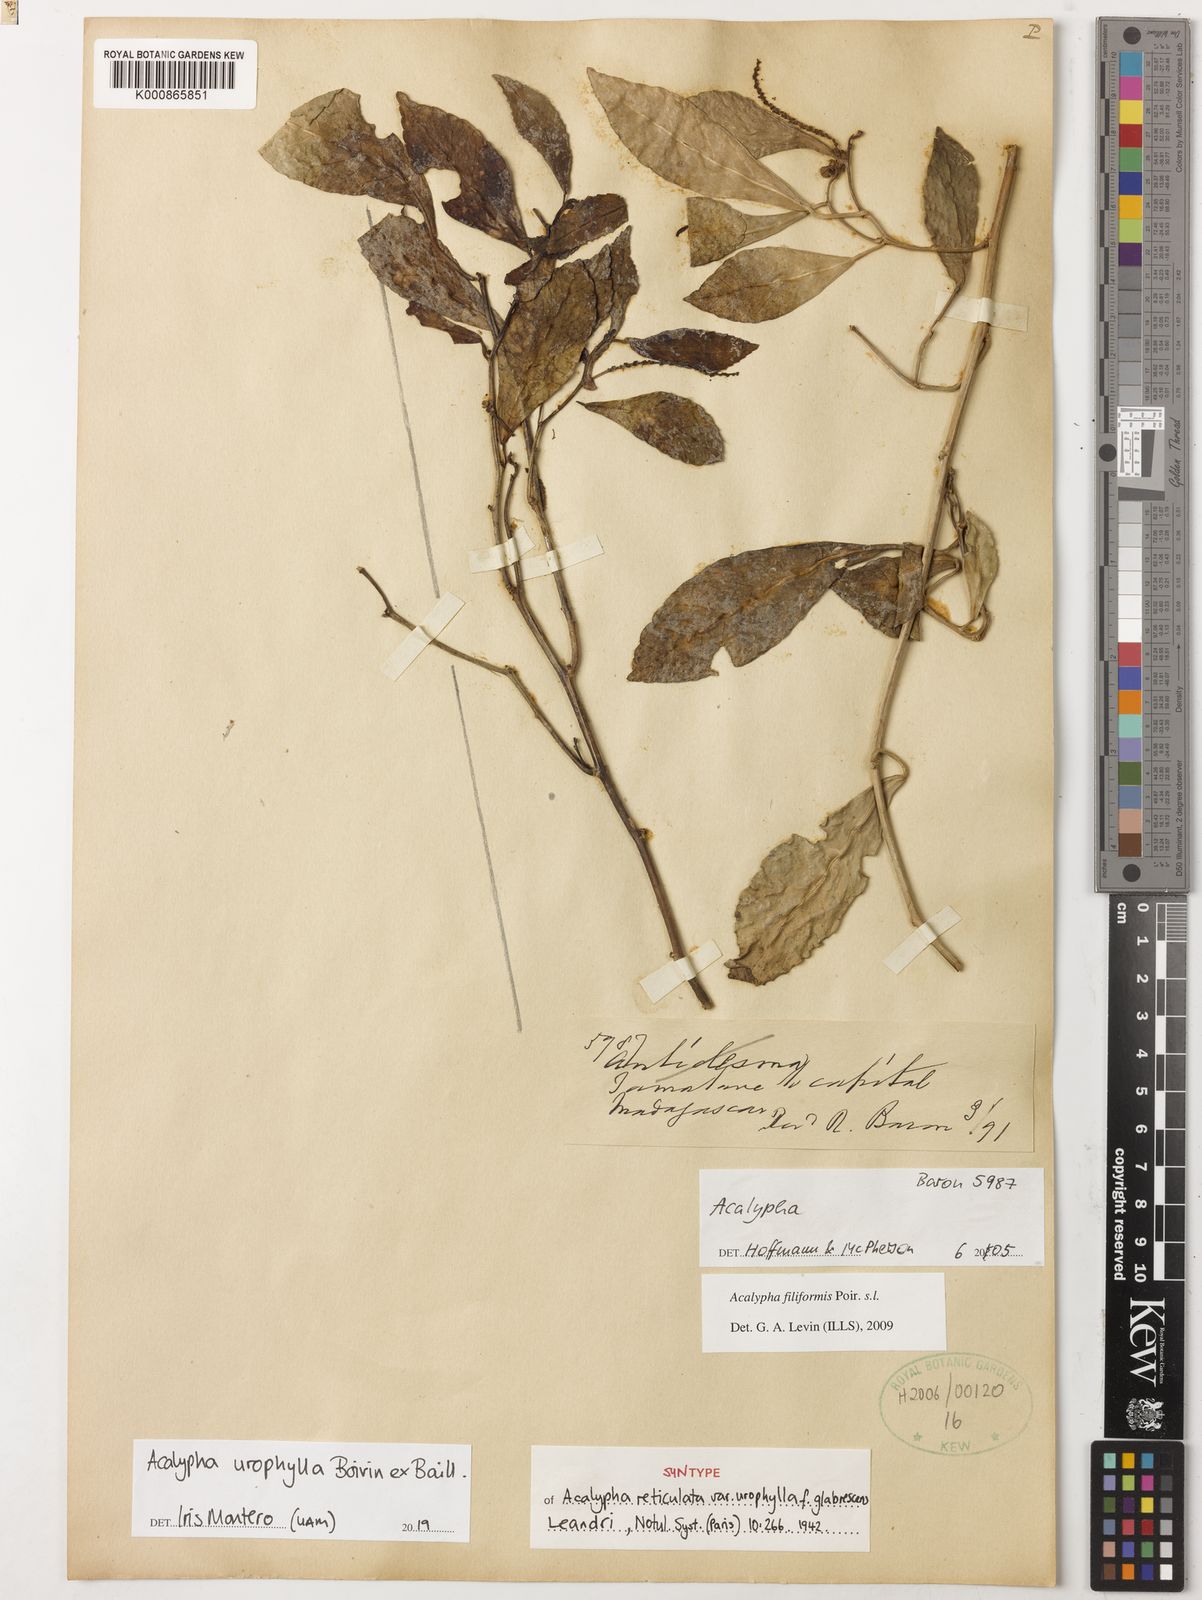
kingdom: Plantae
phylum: Tracheophyta
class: Magnoliopsida
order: Malpighiales
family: Euphorbiaceae
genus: Acalypha
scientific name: Acalypha urophylla
